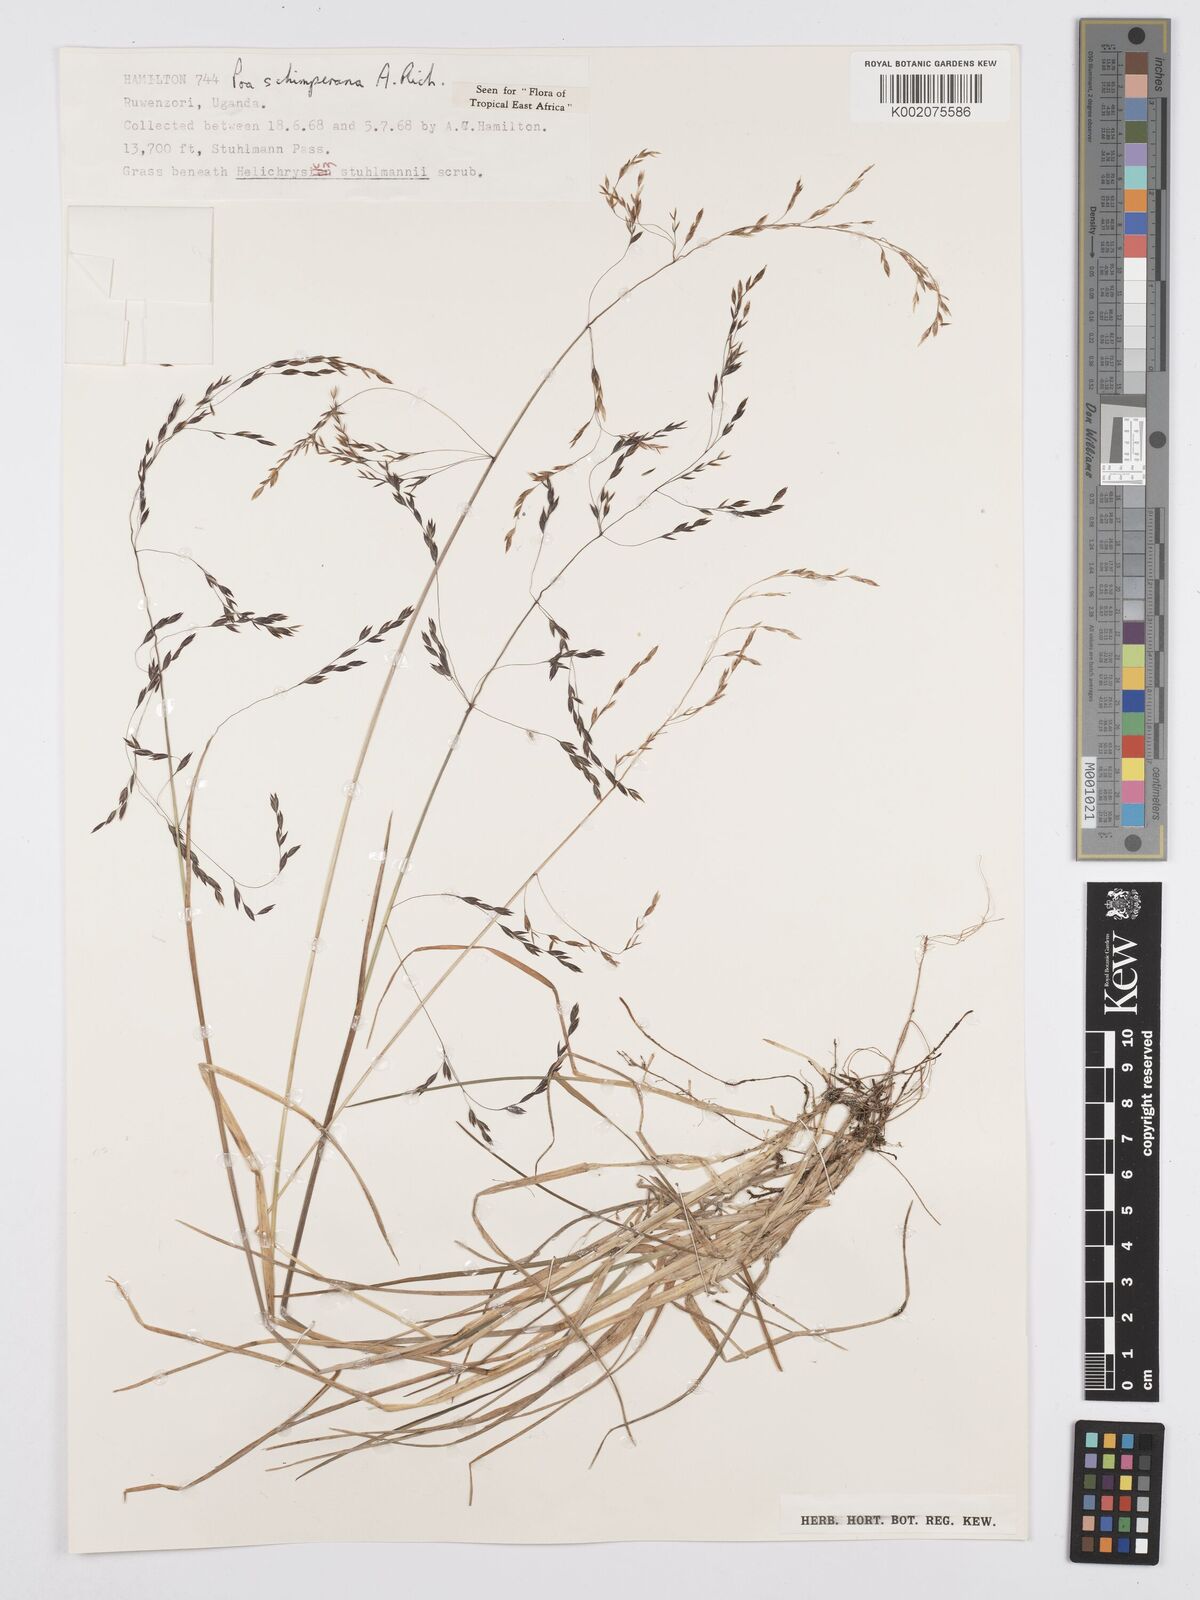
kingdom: Plantae
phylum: Tracheophyta
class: Liliopsida
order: Poales
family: Poaceae
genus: Poa
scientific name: Poa schimperiana
